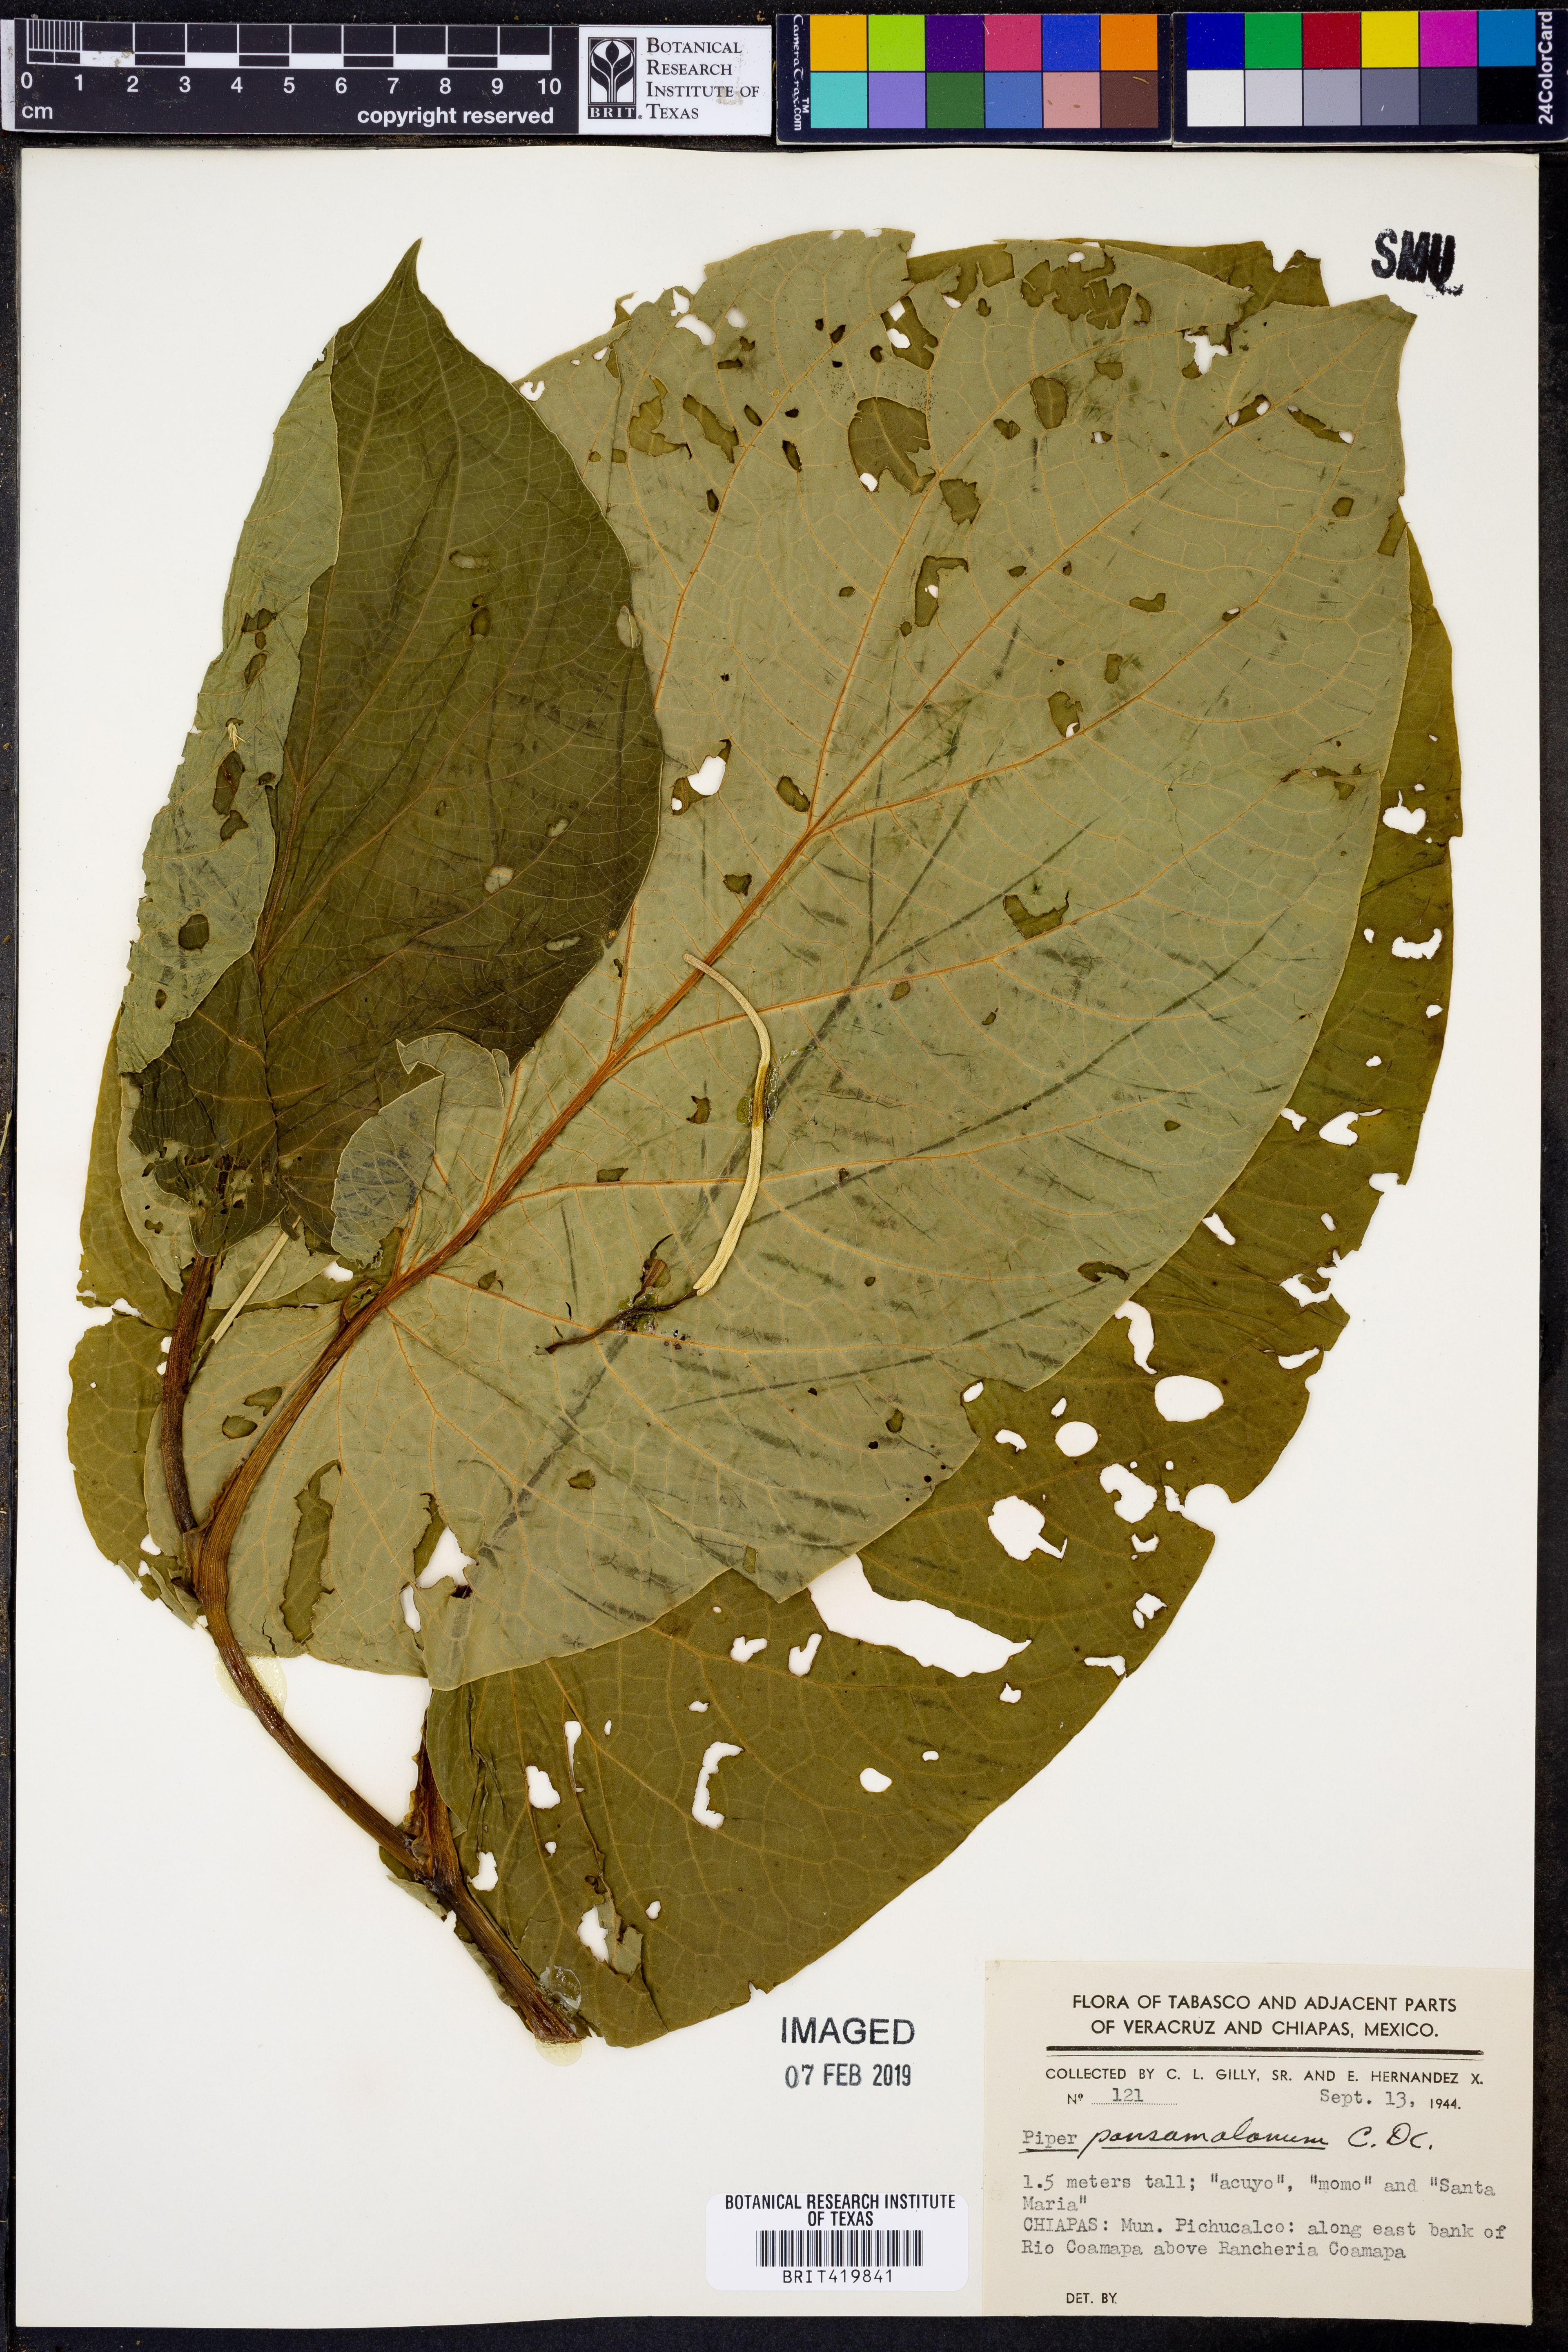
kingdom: Plantae
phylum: Tracheophyta
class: Magnoliopsida
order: Piperales
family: Piperaceae
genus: Piper
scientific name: Piper pansamalanum
